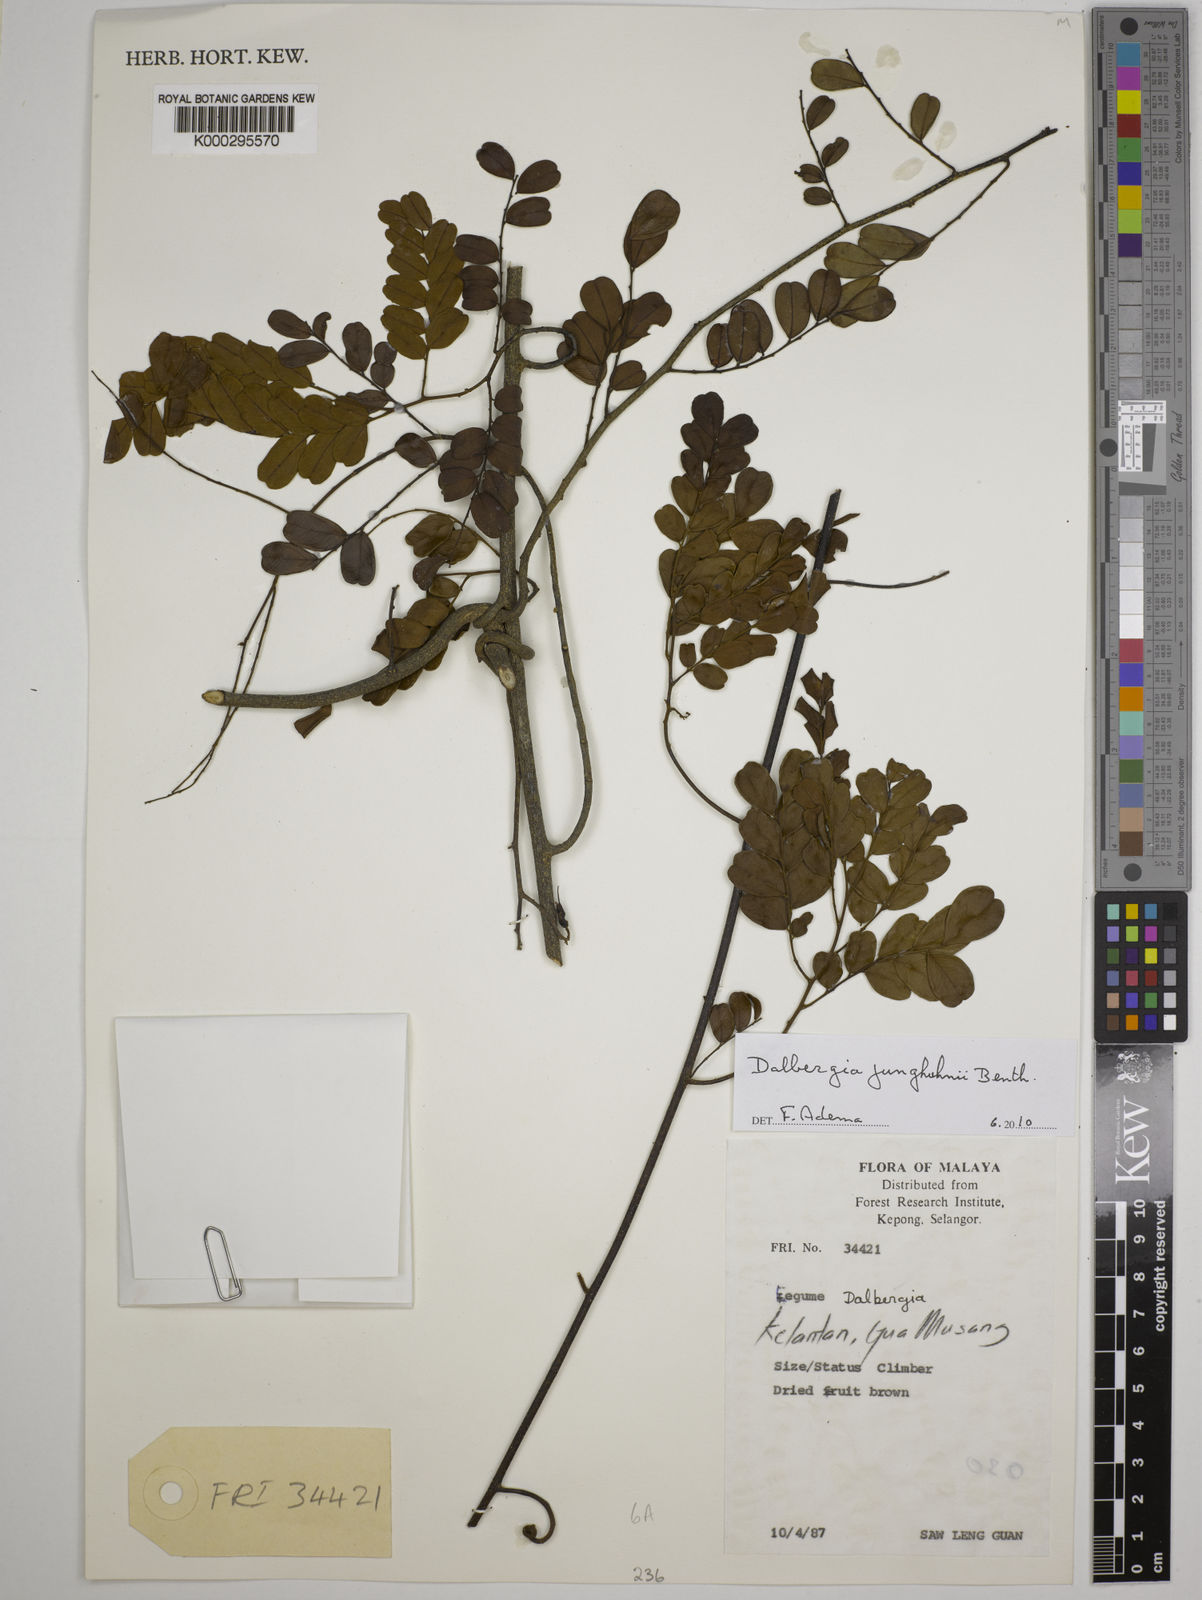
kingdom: Plantae
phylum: Tracheophyta
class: Magnoliopsida
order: Fabales
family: Fabaceae
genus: Dalbergia
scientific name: Dalbergia junghuhnii
